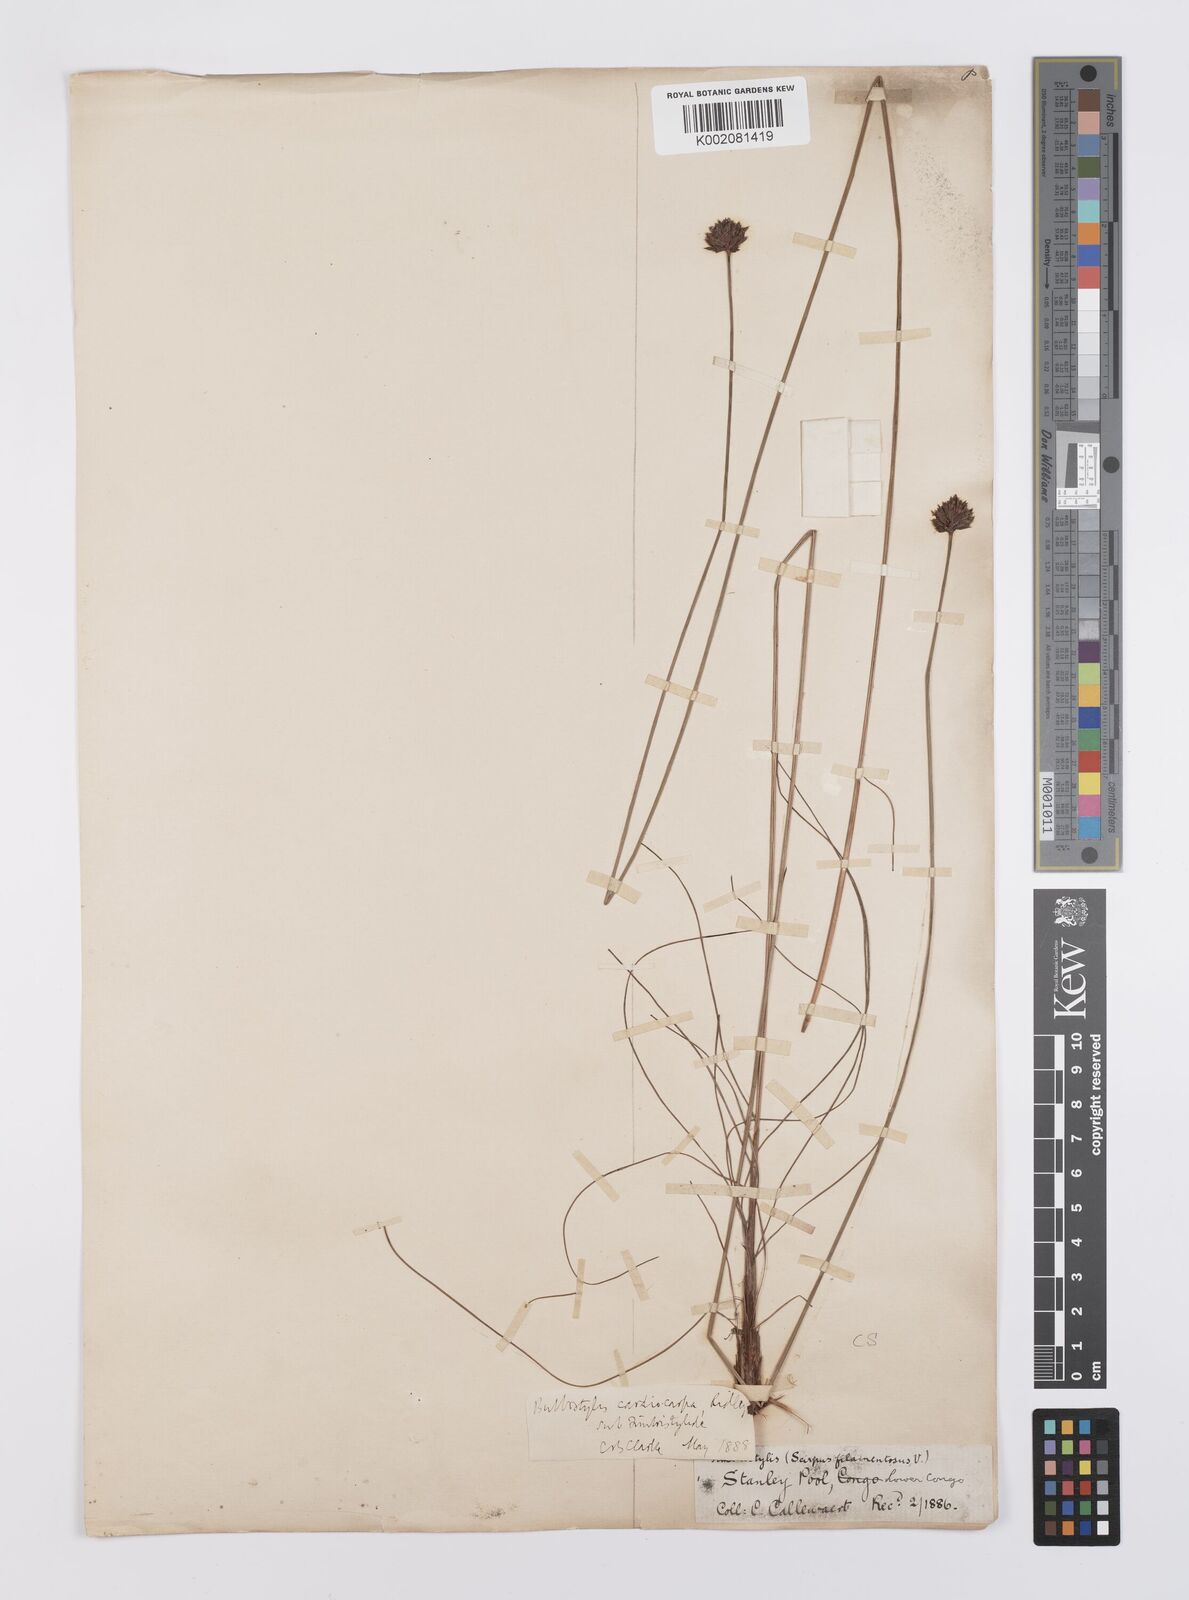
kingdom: Plantae
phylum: Tracheophyta
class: Liliopsida
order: Poales
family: Cyperaceae
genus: Bulbostylis
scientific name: Bulbostylis filamentosa
